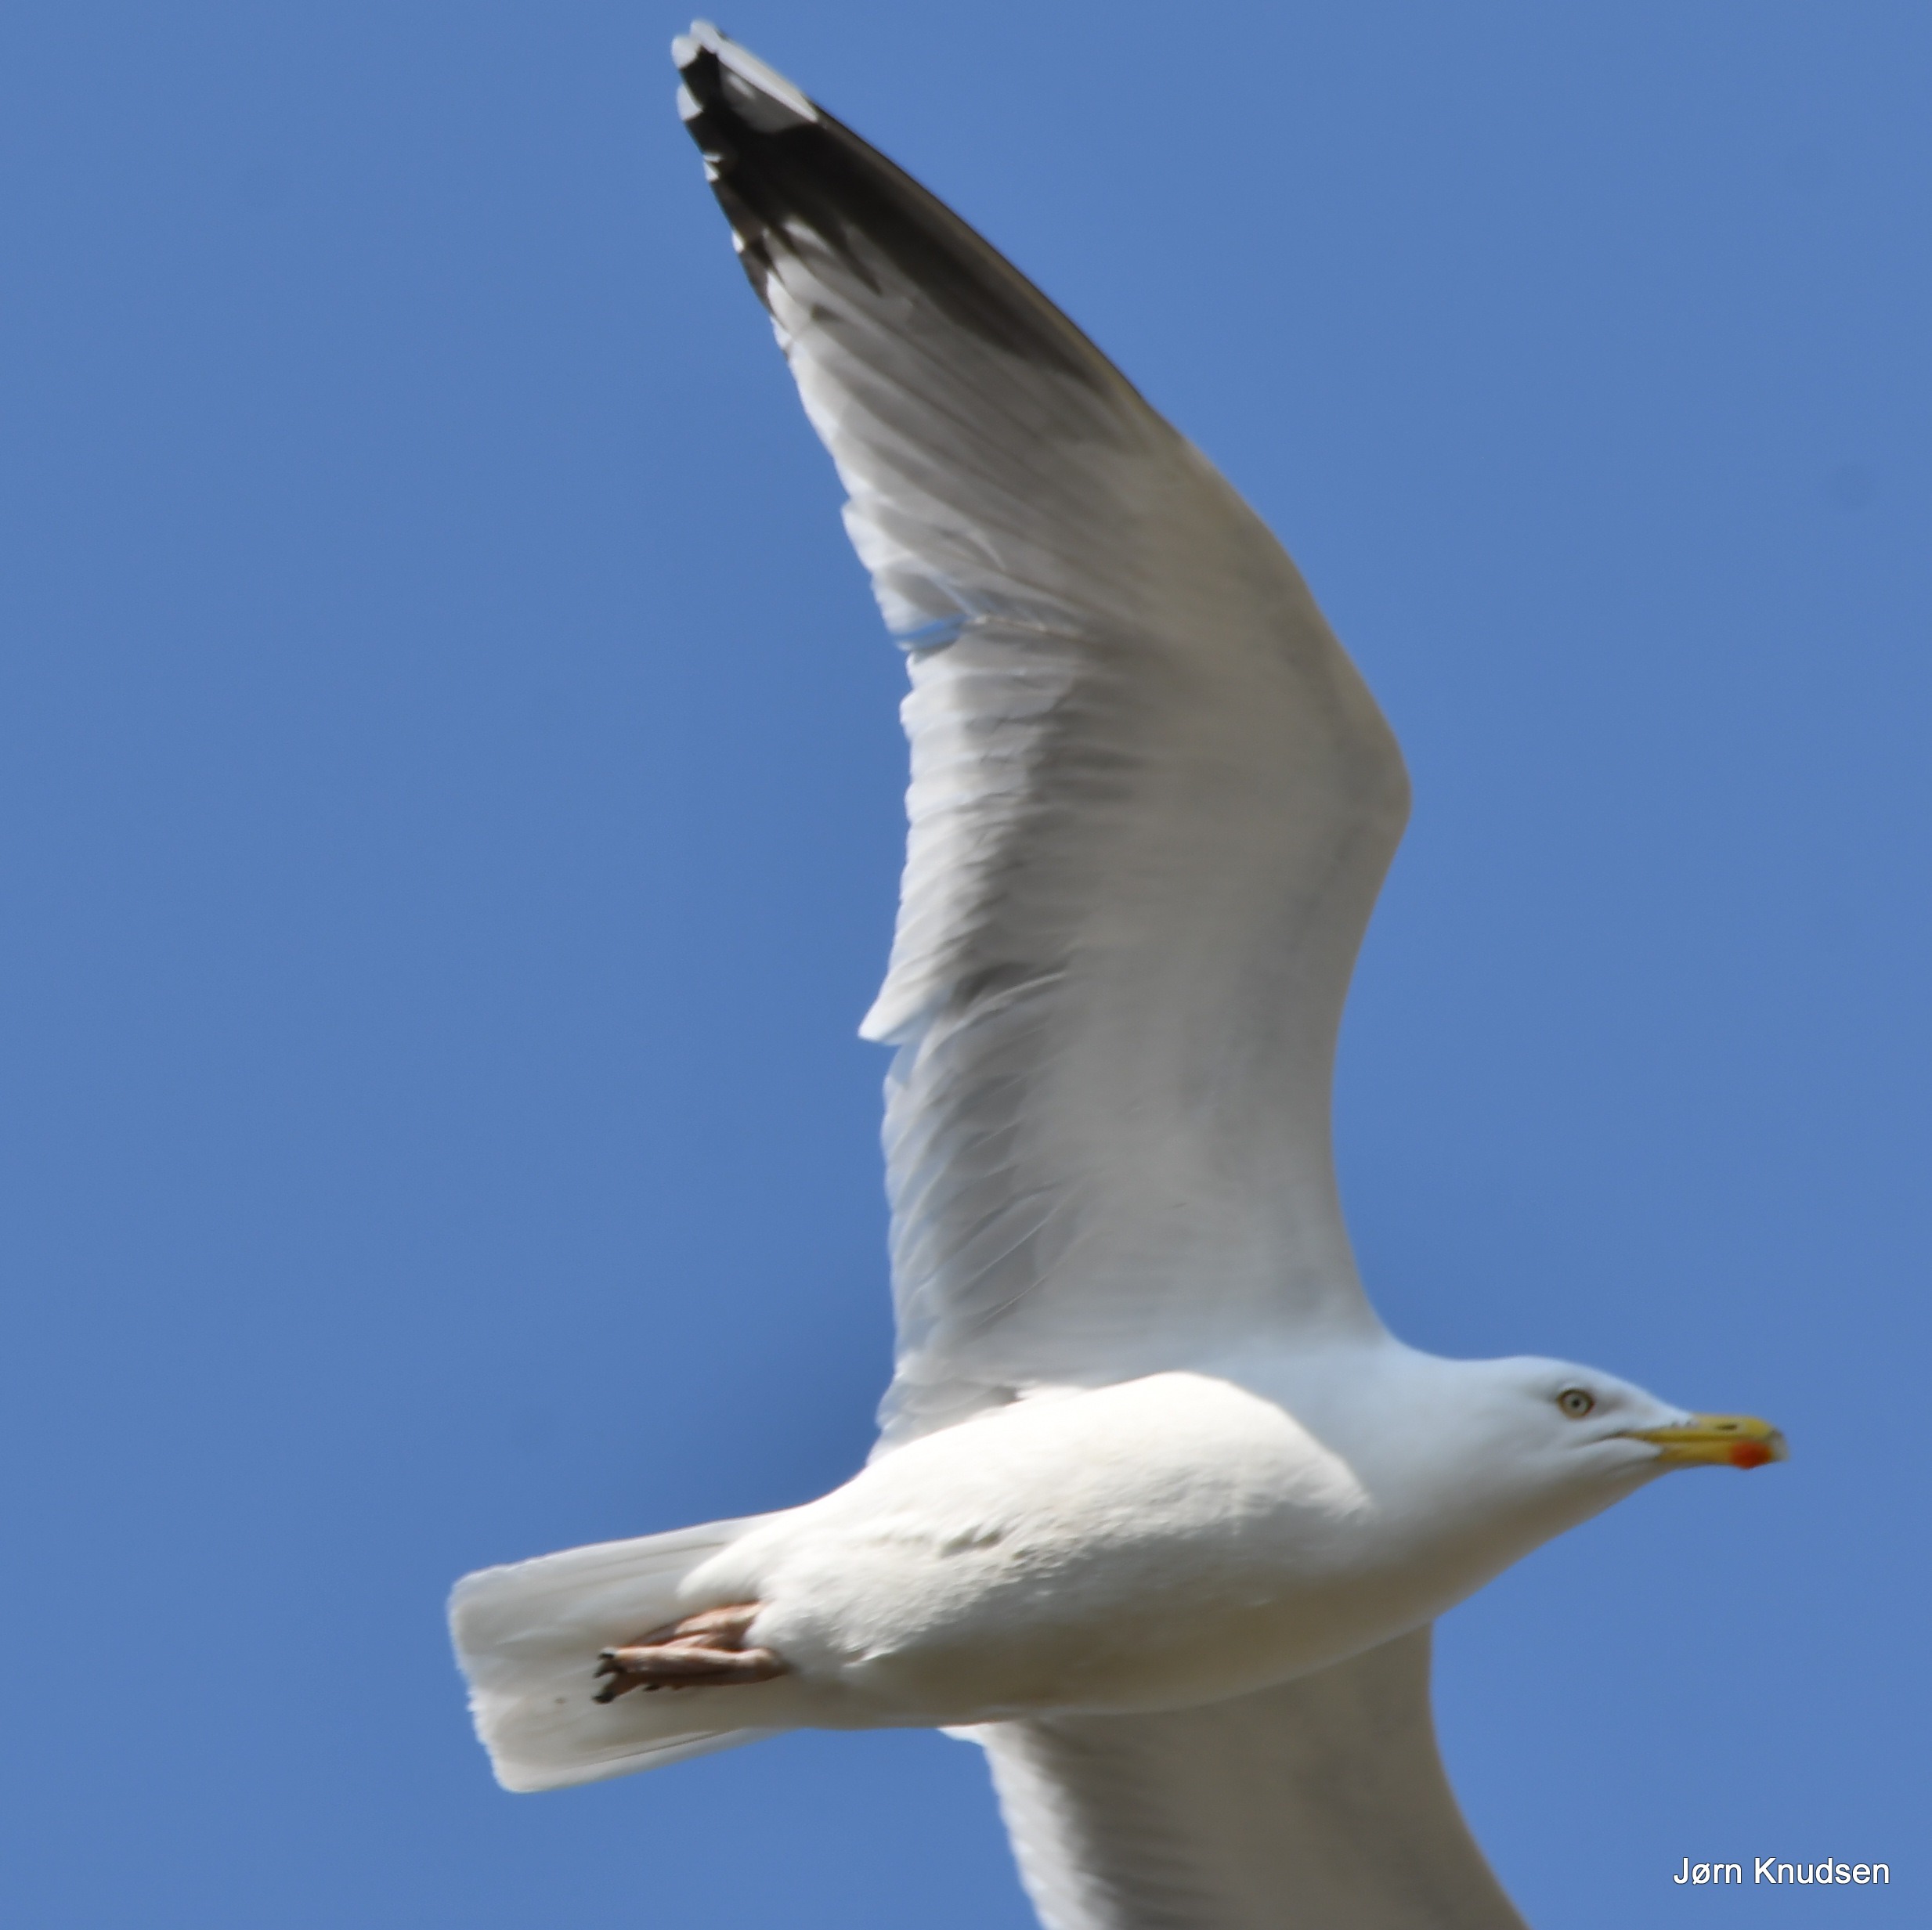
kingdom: Animalia
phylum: Chordata
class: Aves
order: Charadriiformes
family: Laridae
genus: Larus
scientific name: Larus argentatus
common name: Sølvmåge
